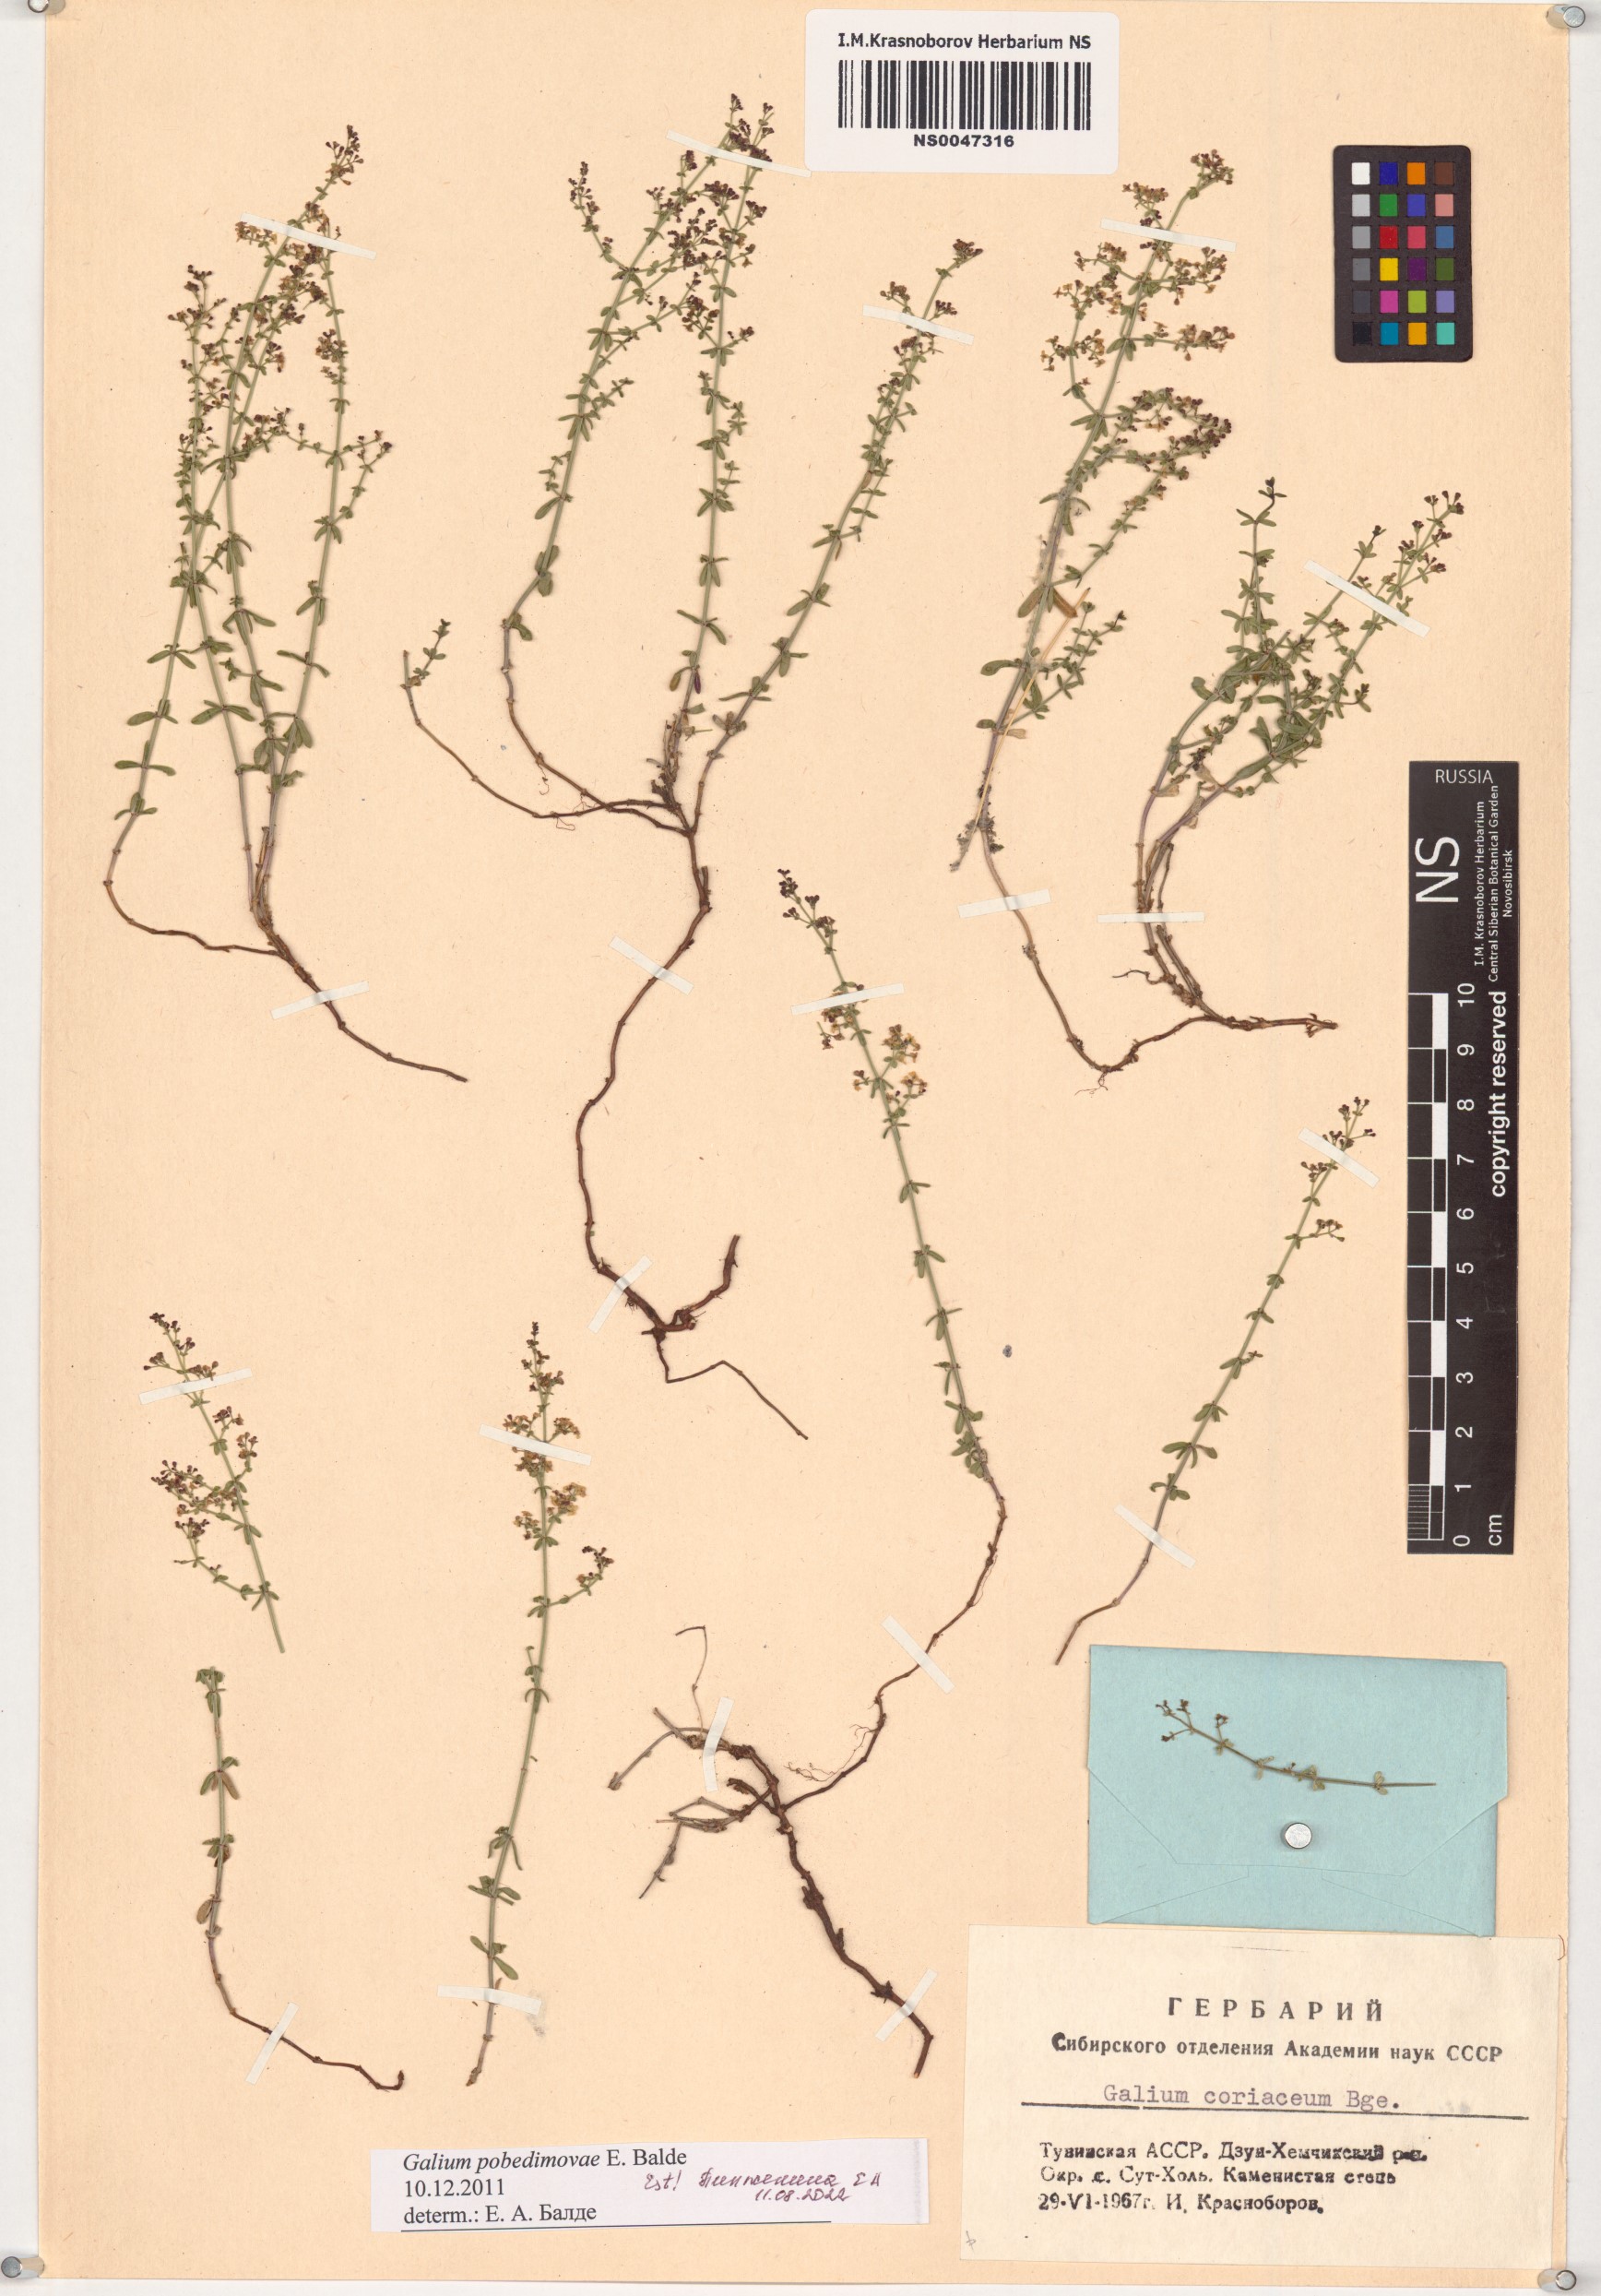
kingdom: Plantae
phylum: Tracheophyta
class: Magnoliopsida
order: Gentianales
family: Rubiaceae
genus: Galium
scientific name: Galium pobedimovae
